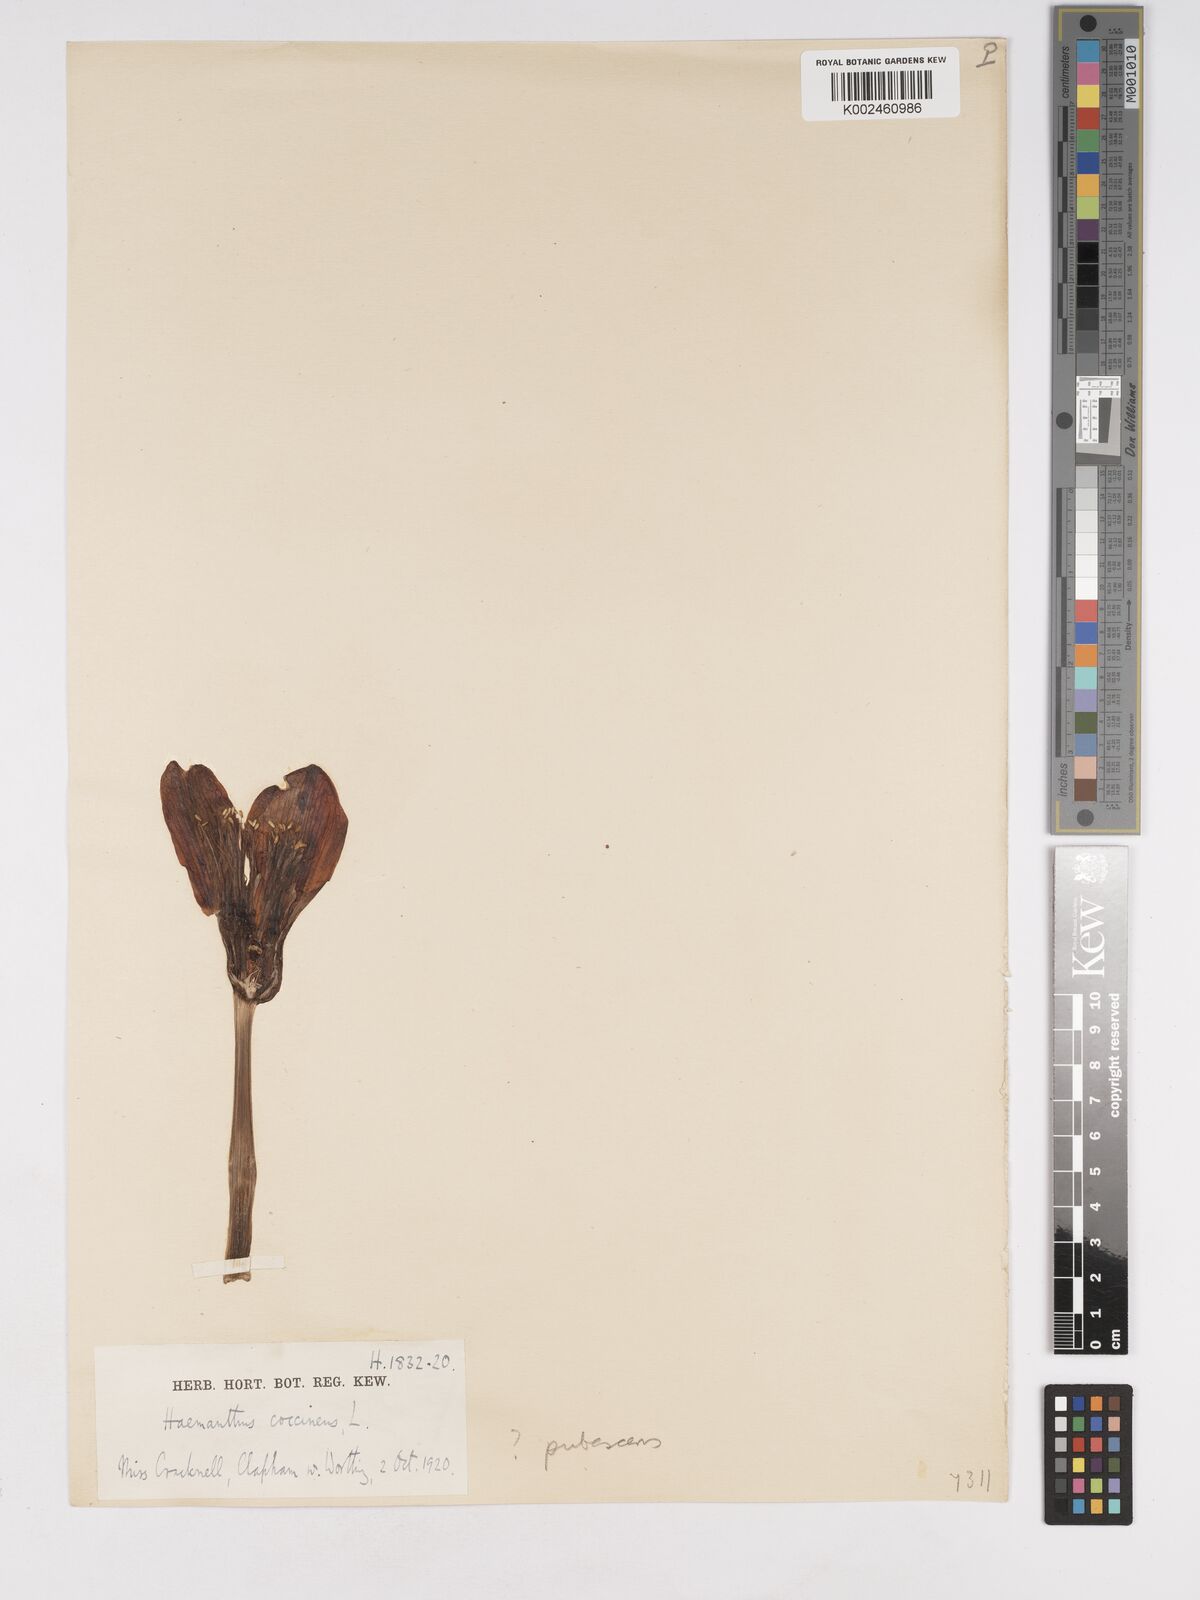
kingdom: Plantae
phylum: Tracheophyta
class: Liliopsida
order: Asparagales
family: Amaryllidaceae
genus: Haemanthus
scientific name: Haemanthus pubescens
